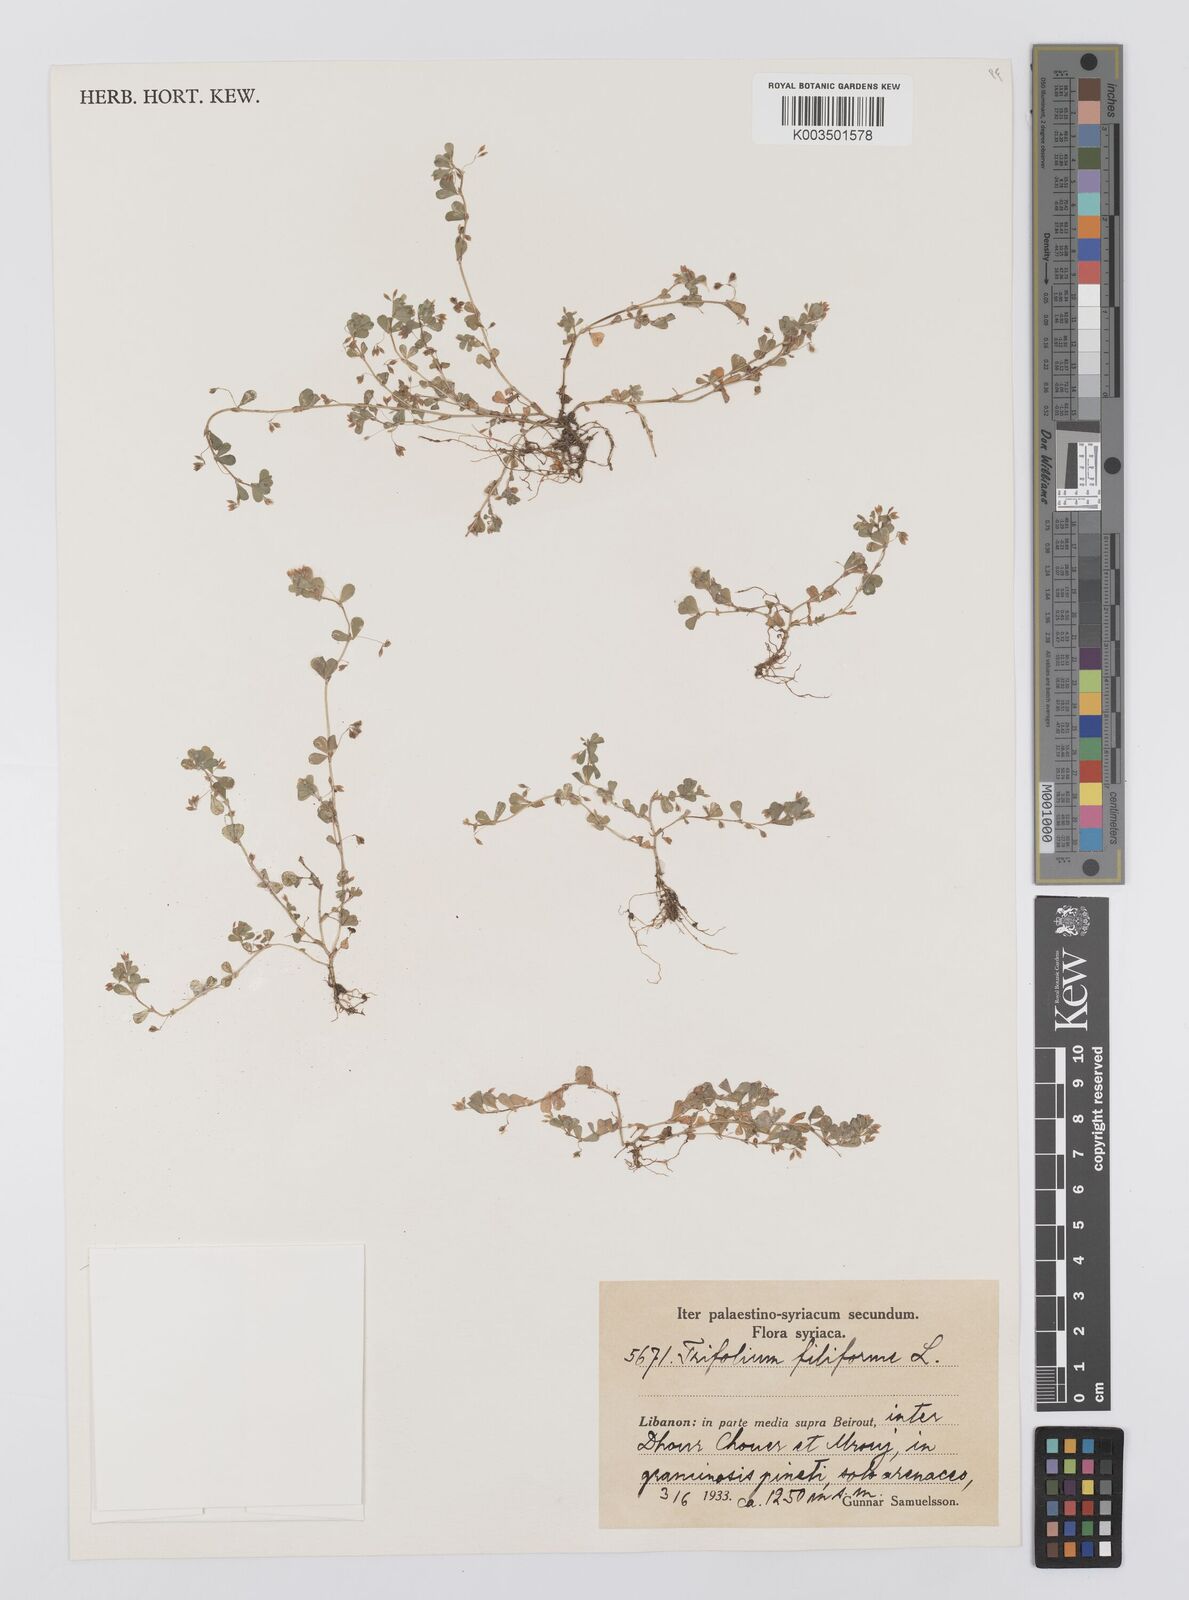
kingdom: Plantae
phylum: Tracheophyta
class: Magnoliopsida
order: Fabales
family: Fabaceae
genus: Trifolium
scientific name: Trifolium micranthum
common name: Slender trefoil
